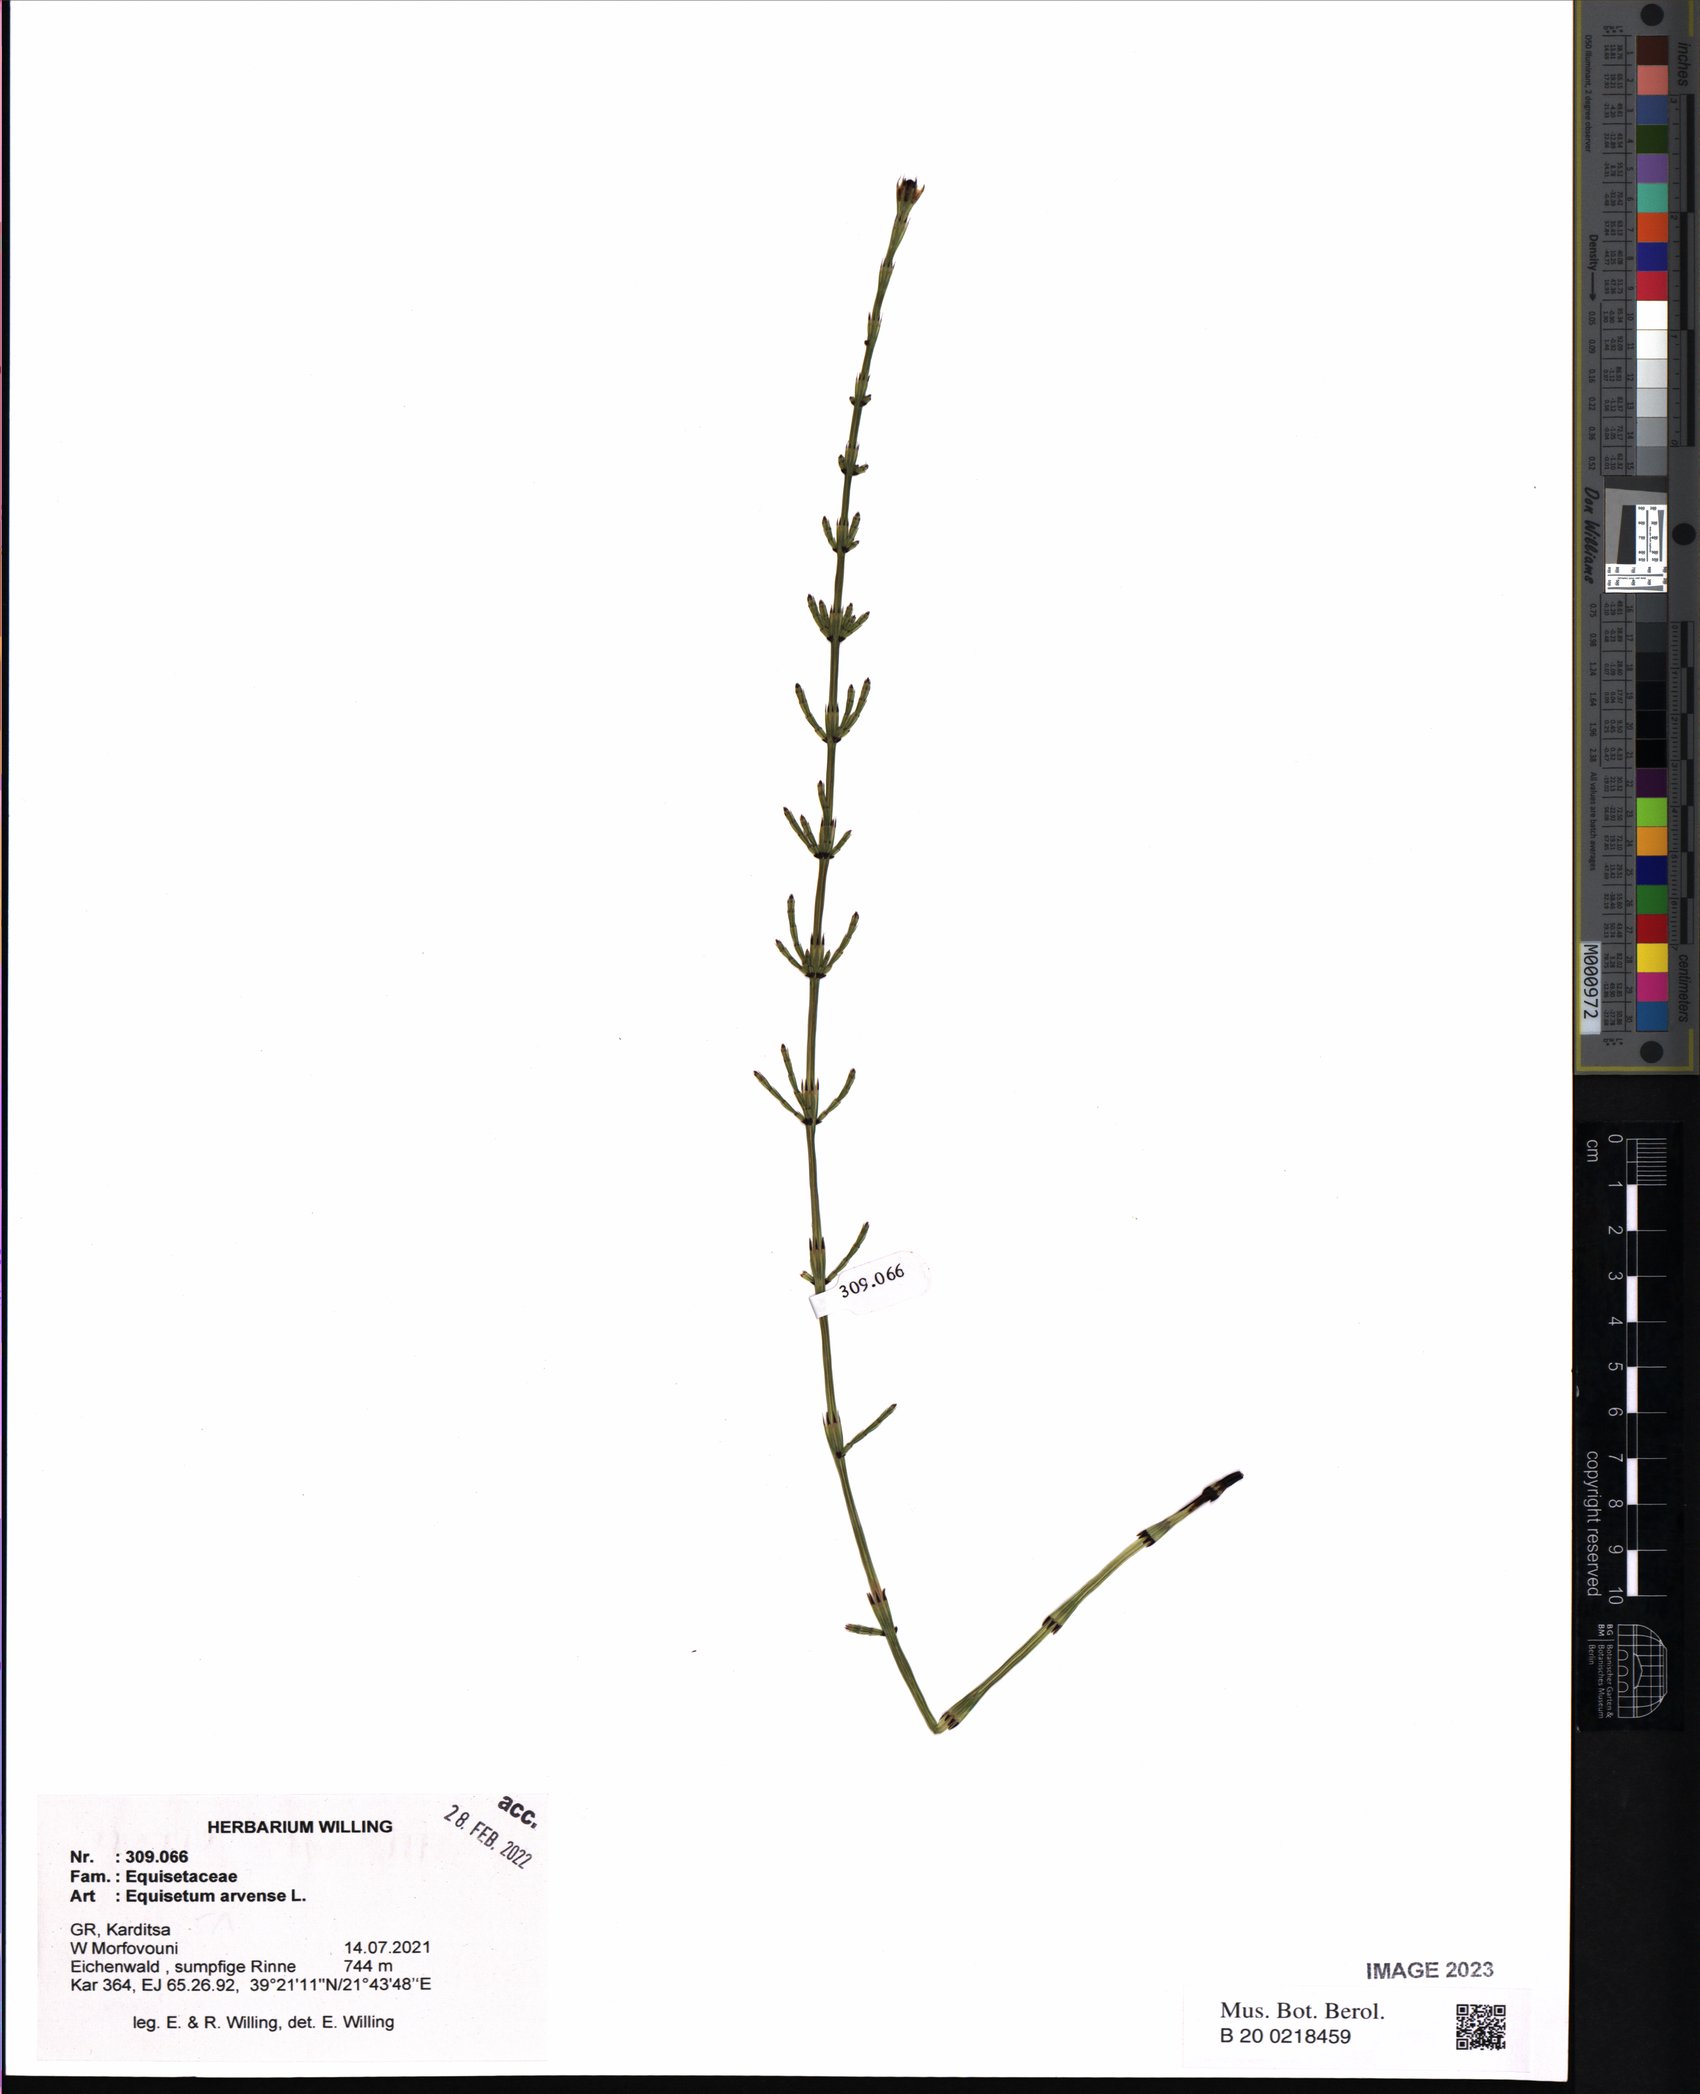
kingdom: Plantae
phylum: Tracheophyta
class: Polypodiopsida
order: Equisetales
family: Equisetaceae
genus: Equisetum
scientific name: Equisetum arvense
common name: Field horsetail
